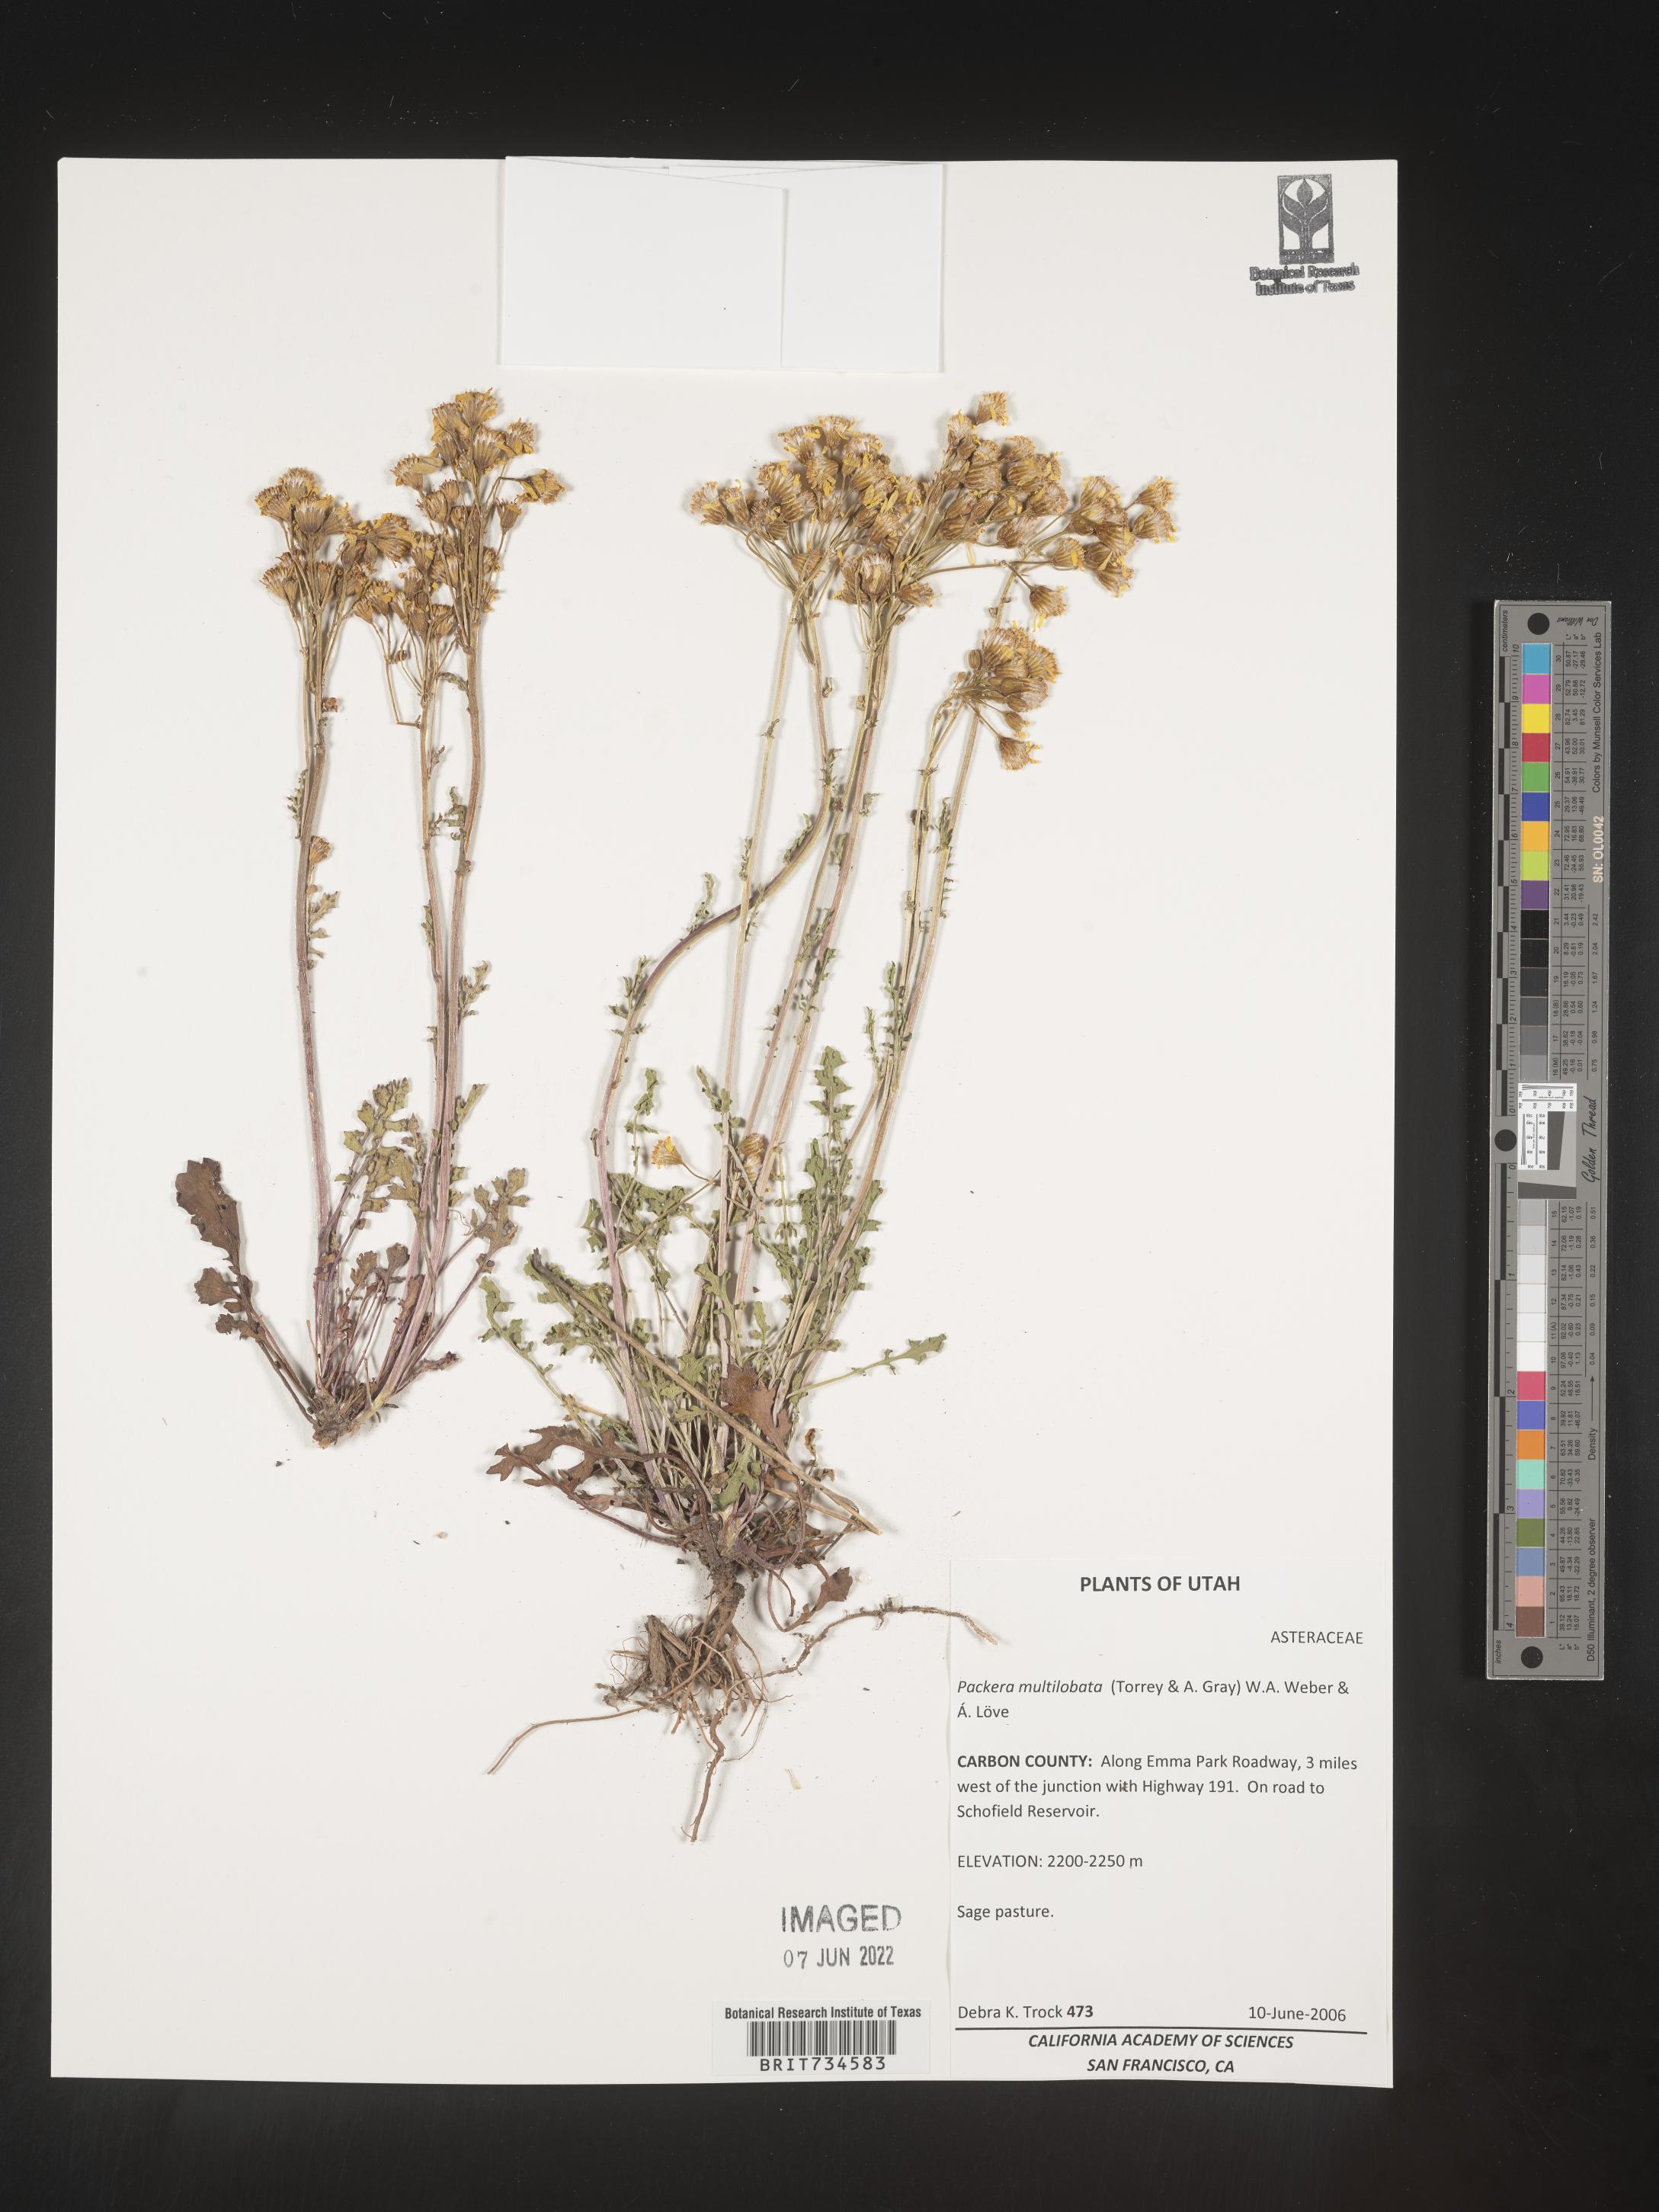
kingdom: Plantae
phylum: Tracheophyta
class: Magnoliopsida
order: Asterales
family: Asteraceae
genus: Packera
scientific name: Packera multilobata
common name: Lobe-leaf groundsel
